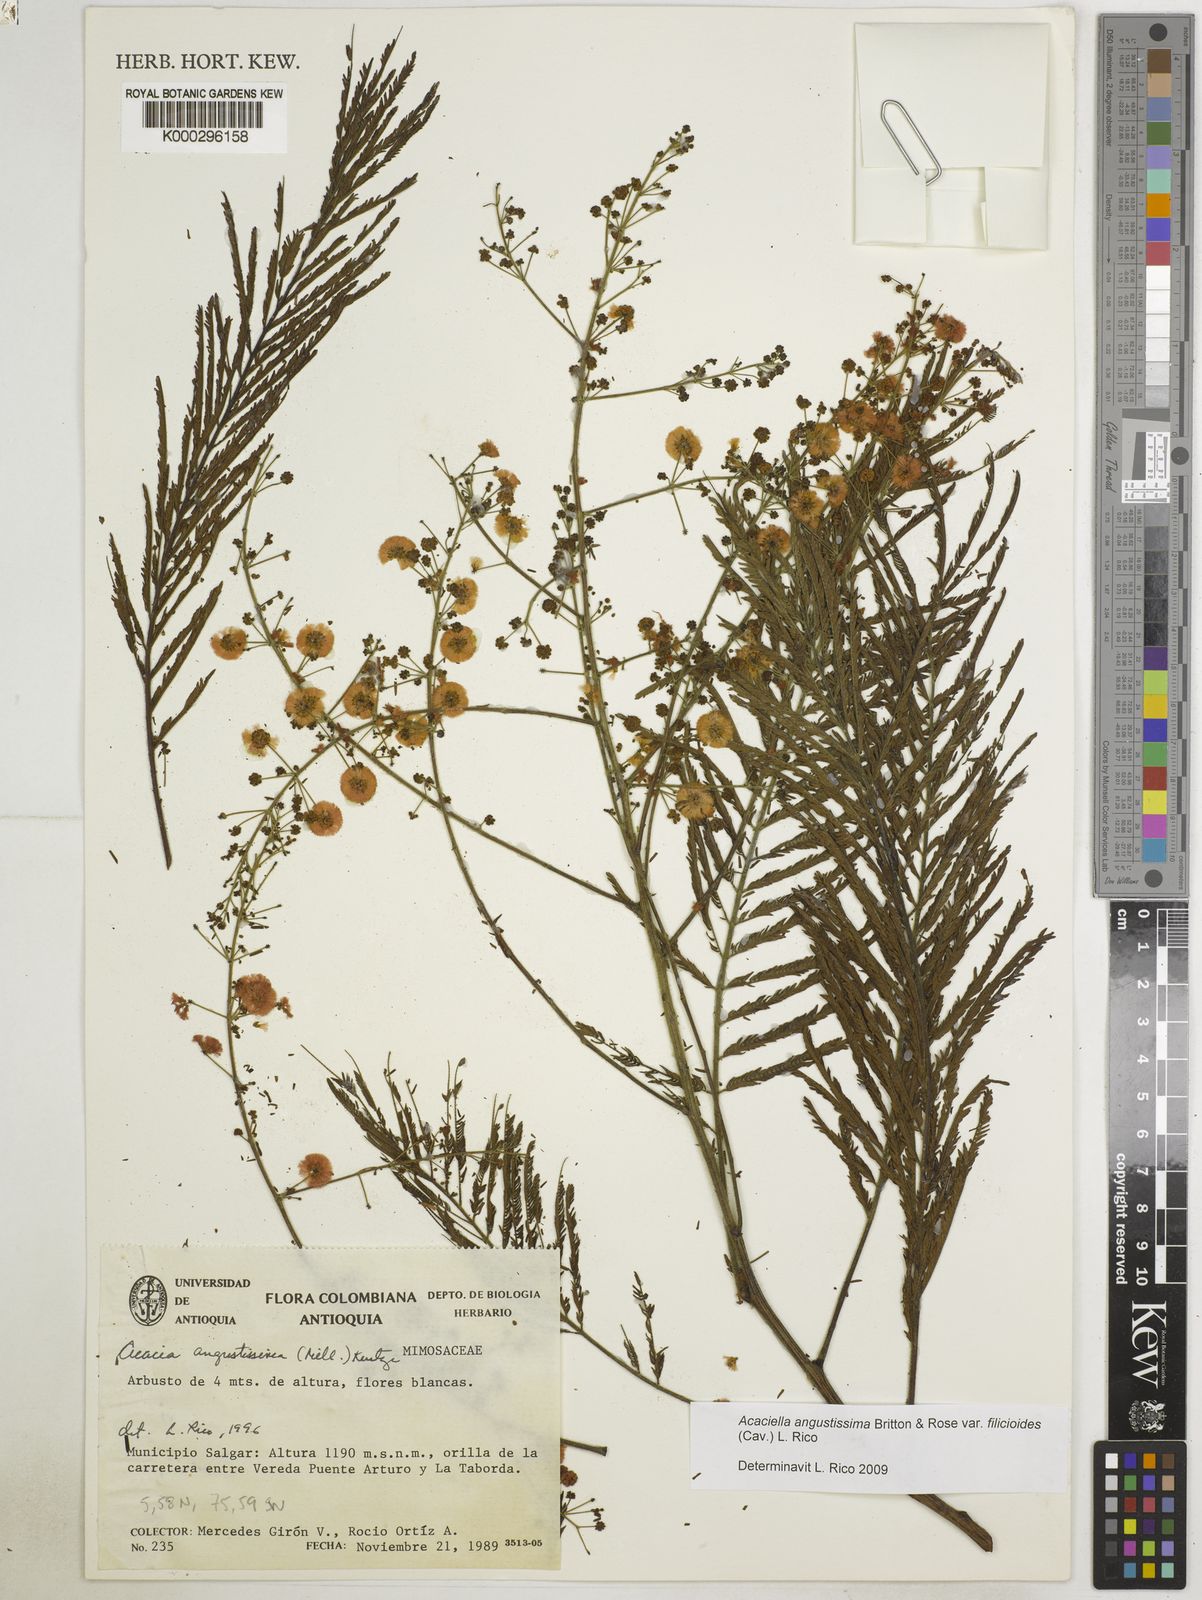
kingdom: Plantae
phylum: Tracheophyta
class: Magnoliopsida
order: Fabales
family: Fabaceae
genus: Acaciella
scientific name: Acaciella angustissima
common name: Prairie acacia
